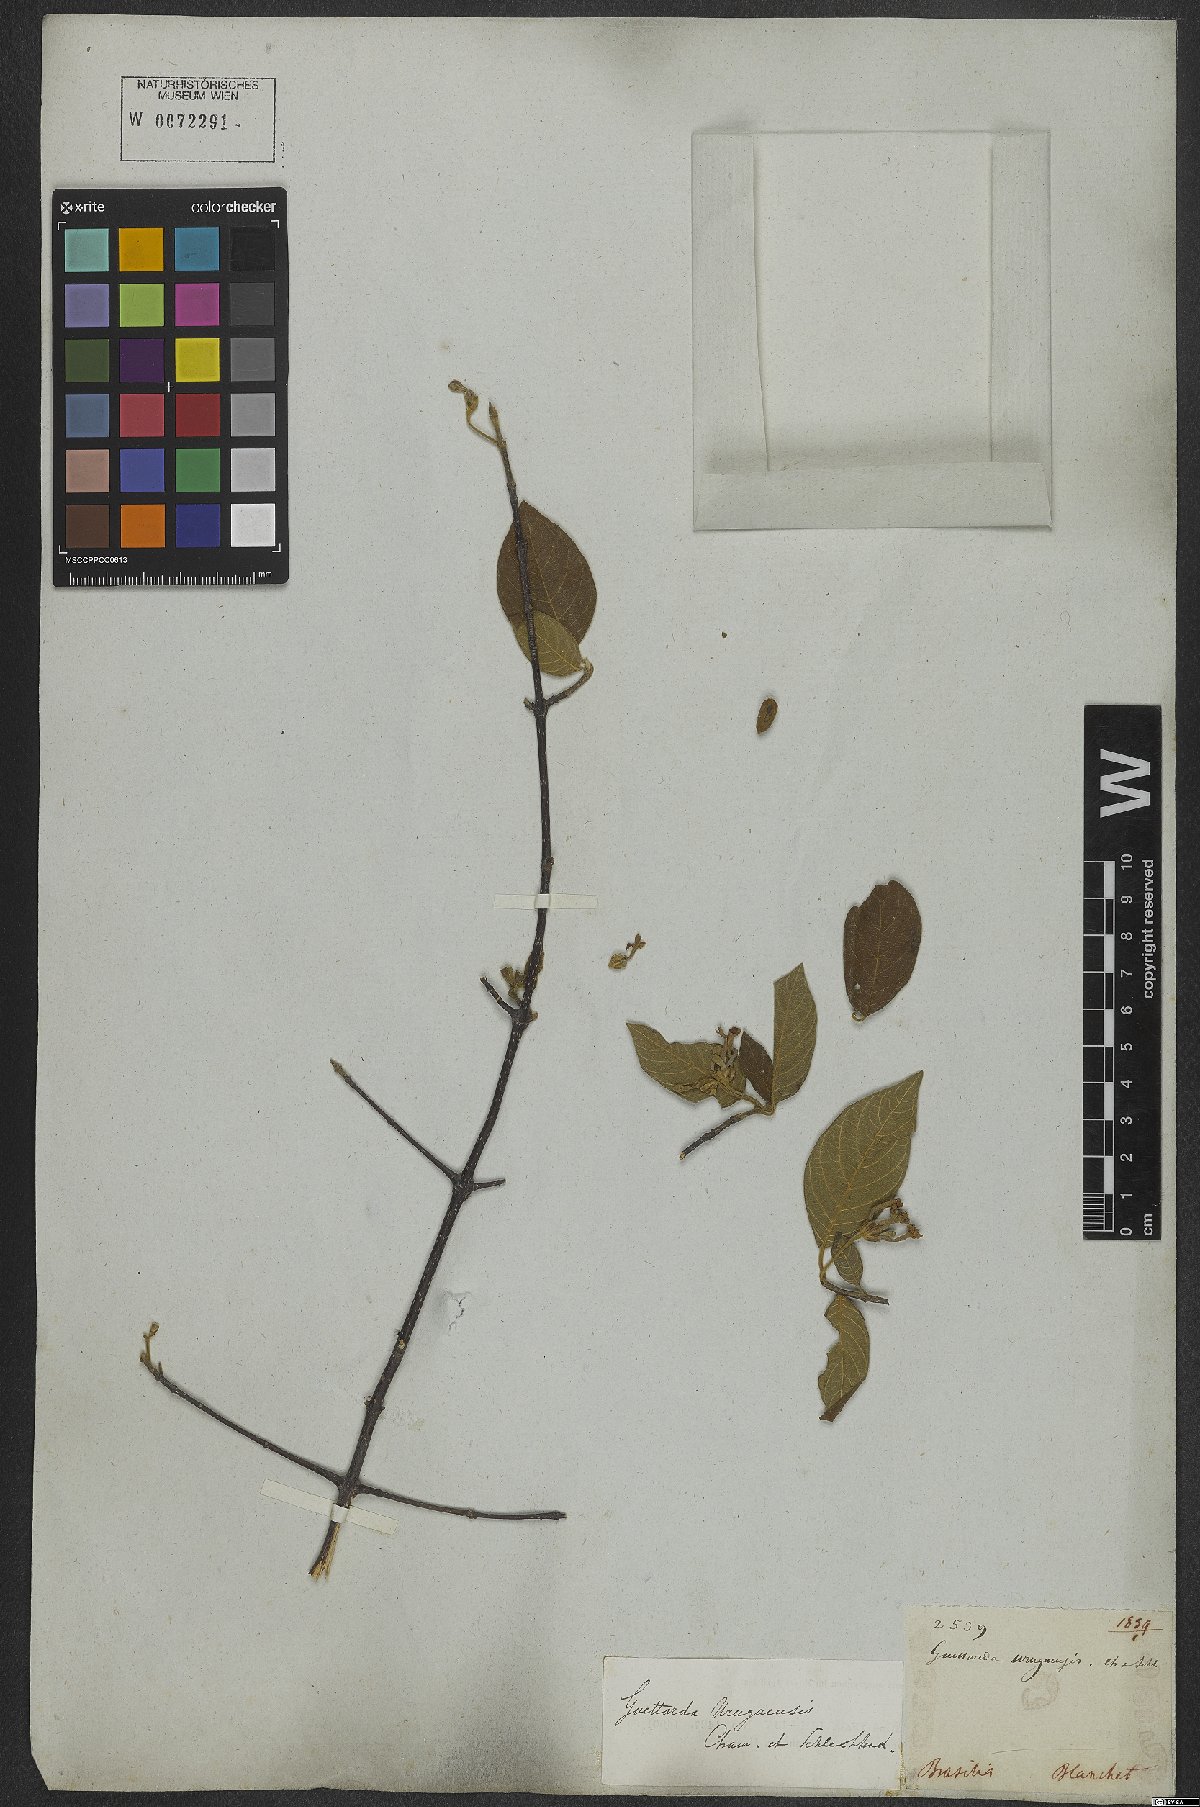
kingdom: Plantae
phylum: Tracheophyta
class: Magnoliopsida
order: Gentianales
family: Rubiaceae
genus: Guettarda
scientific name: Guettarda uruguensis
